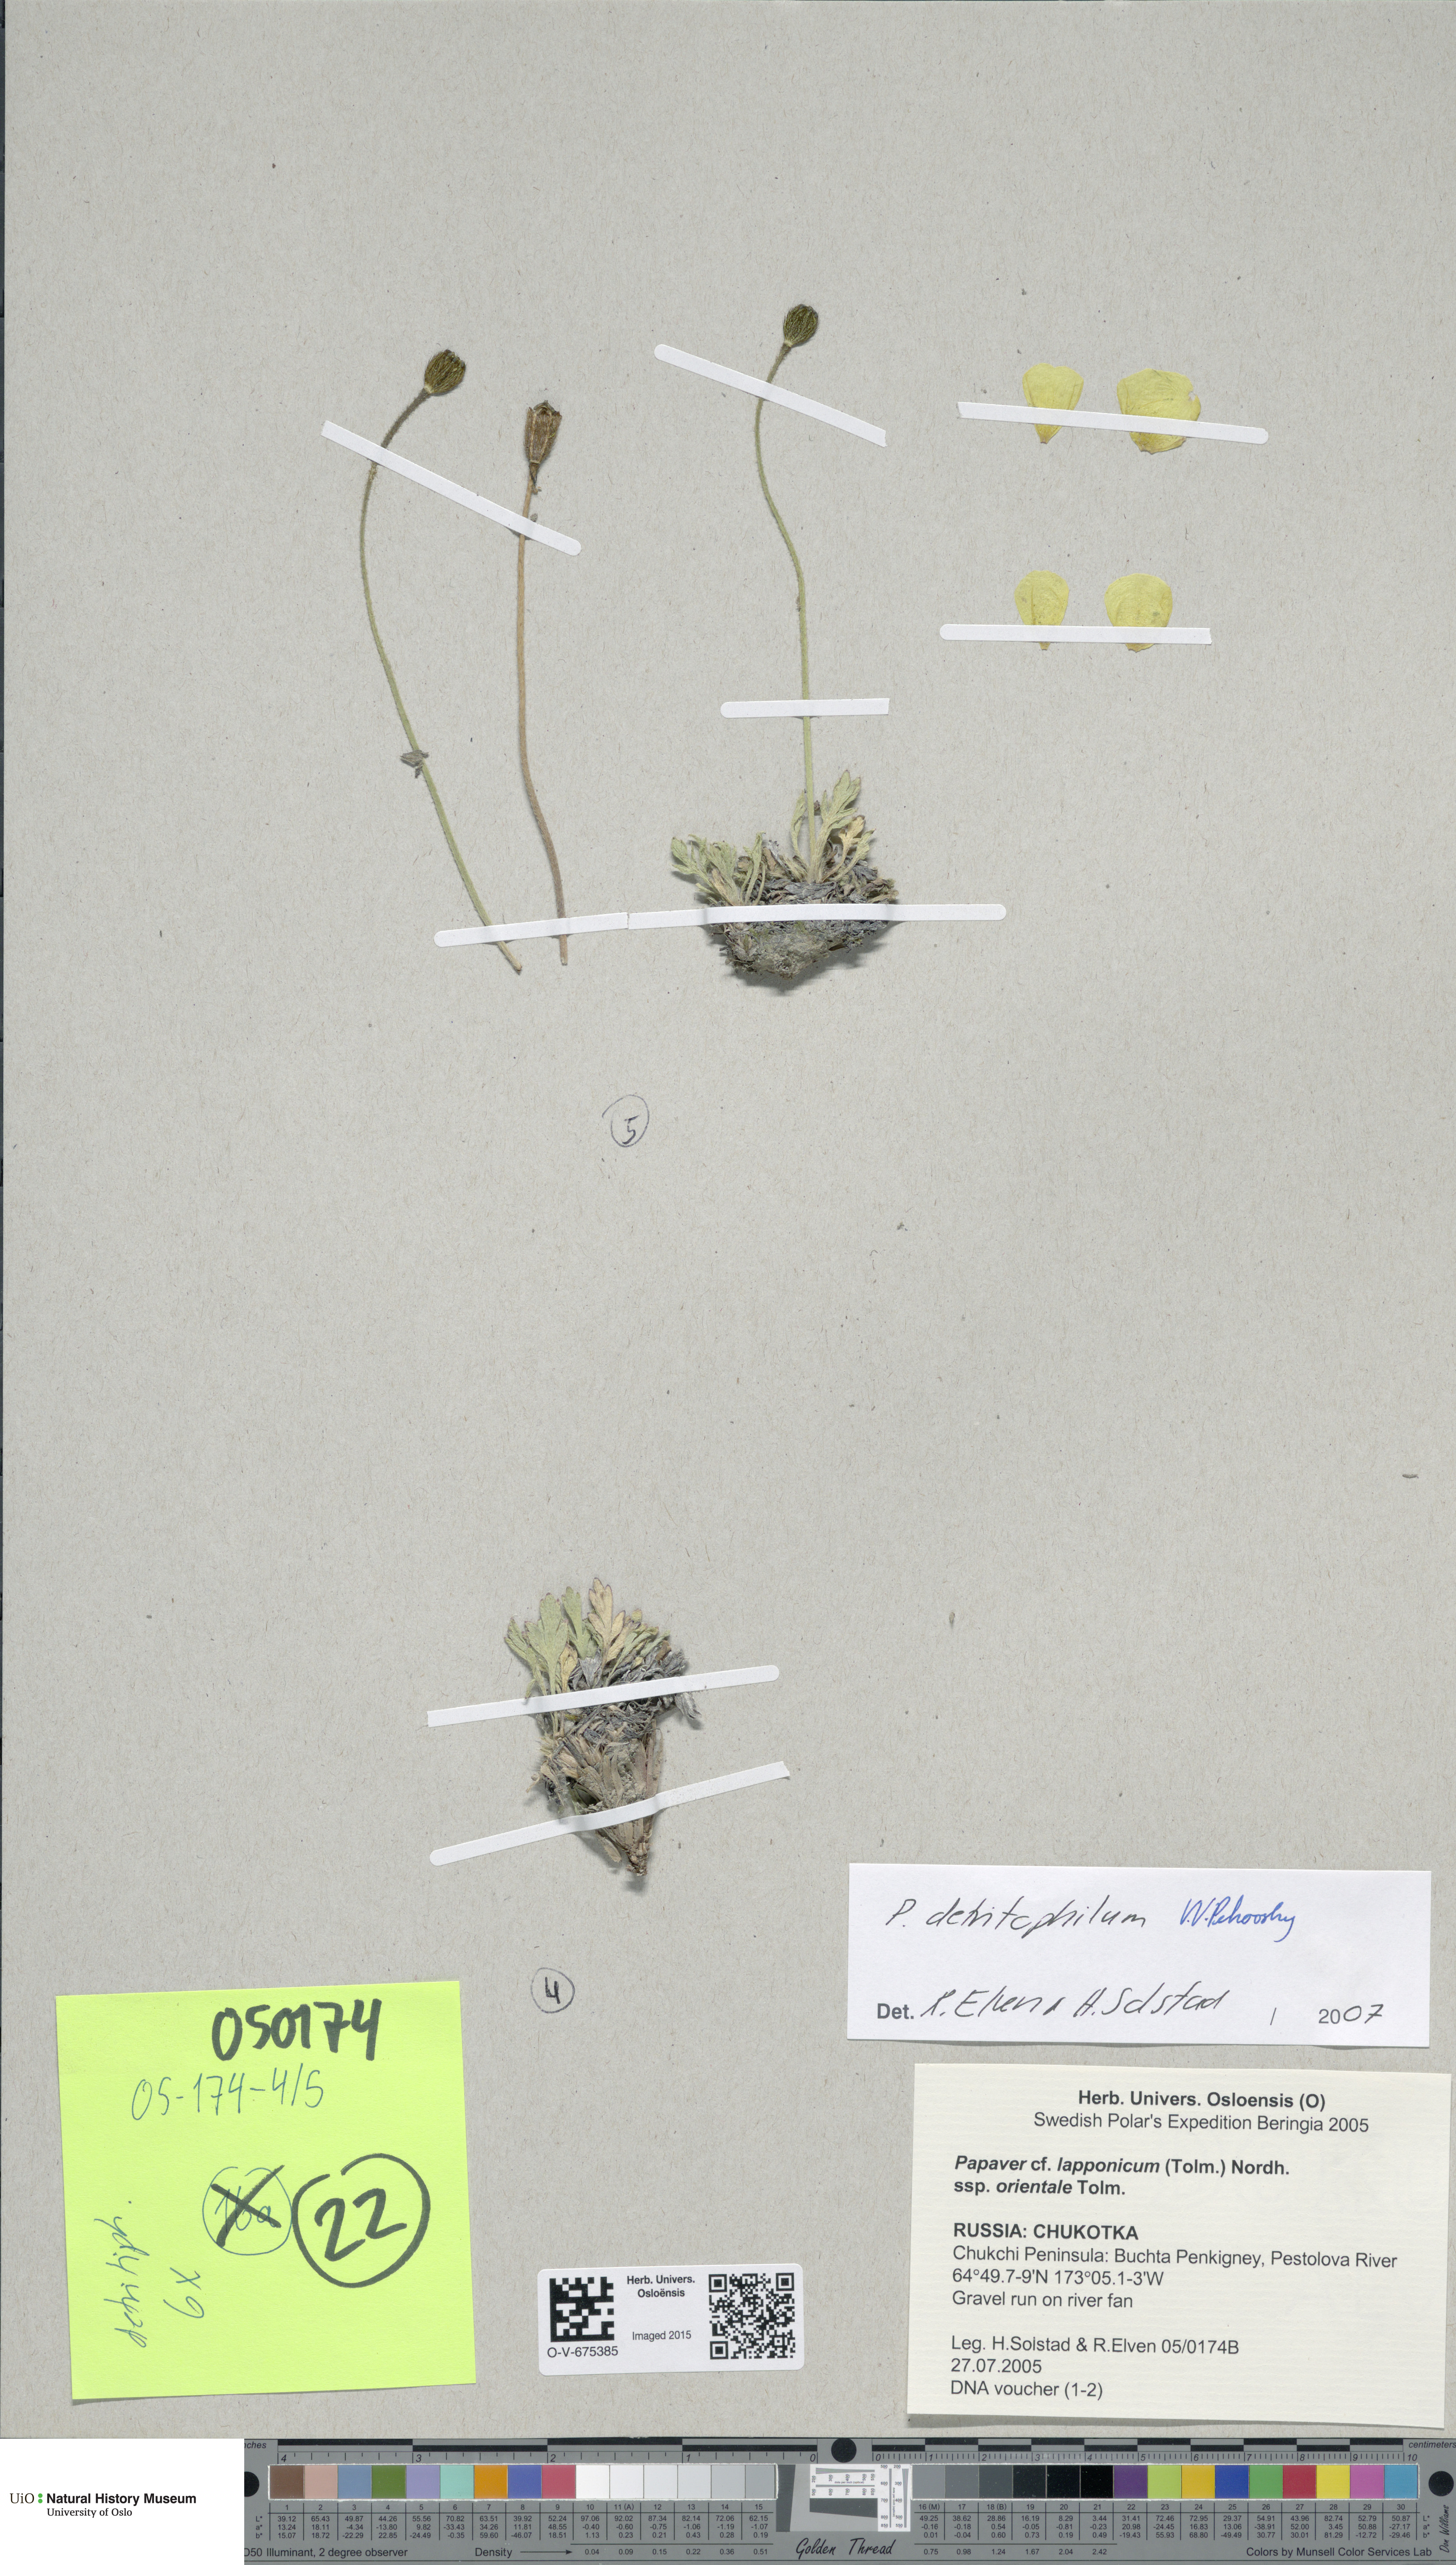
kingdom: Plantae
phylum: Tracheophyta
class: Magnoliopsida
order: Ranunculales
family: Papaveraceae
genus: Papaver
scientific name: Papaver detritophilum
